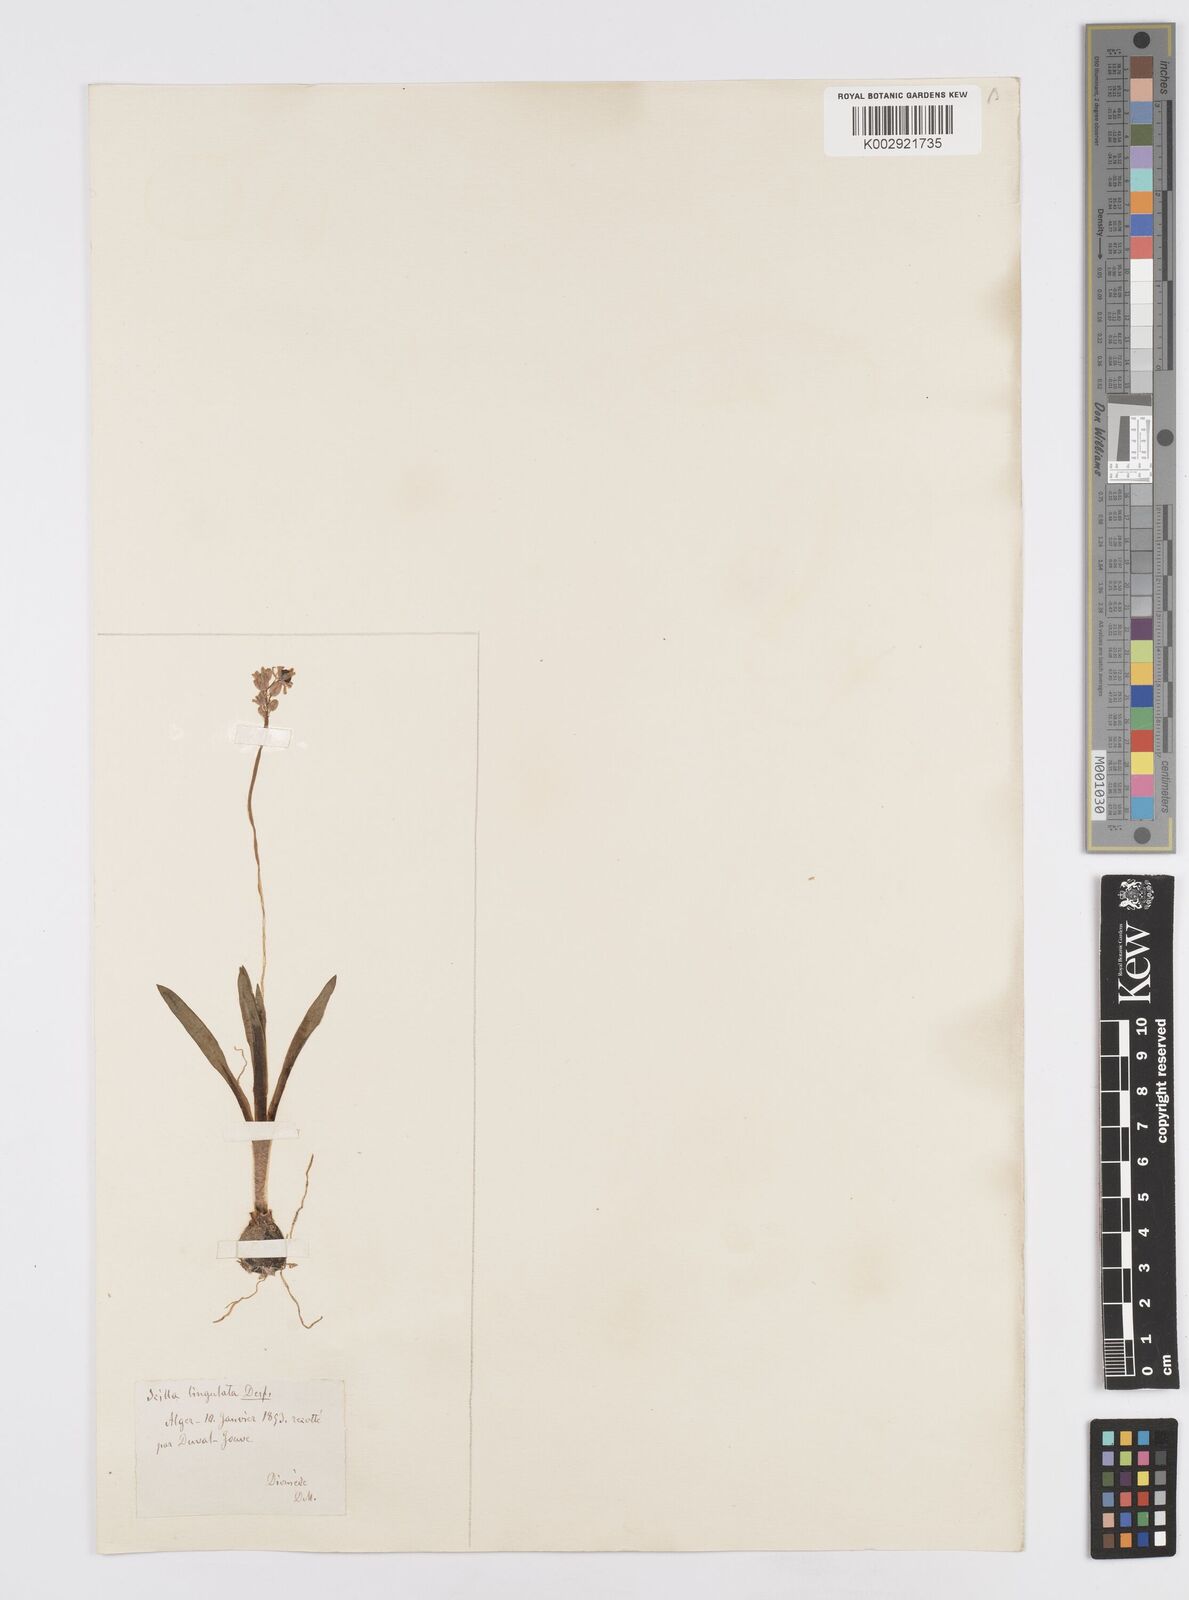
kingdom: Plantae
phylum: Tracheophyta
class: Liliopsida
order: Asparagales
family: Asparagaceae
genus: Hyacinthoides
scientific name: Hyacinthoides lingulata
